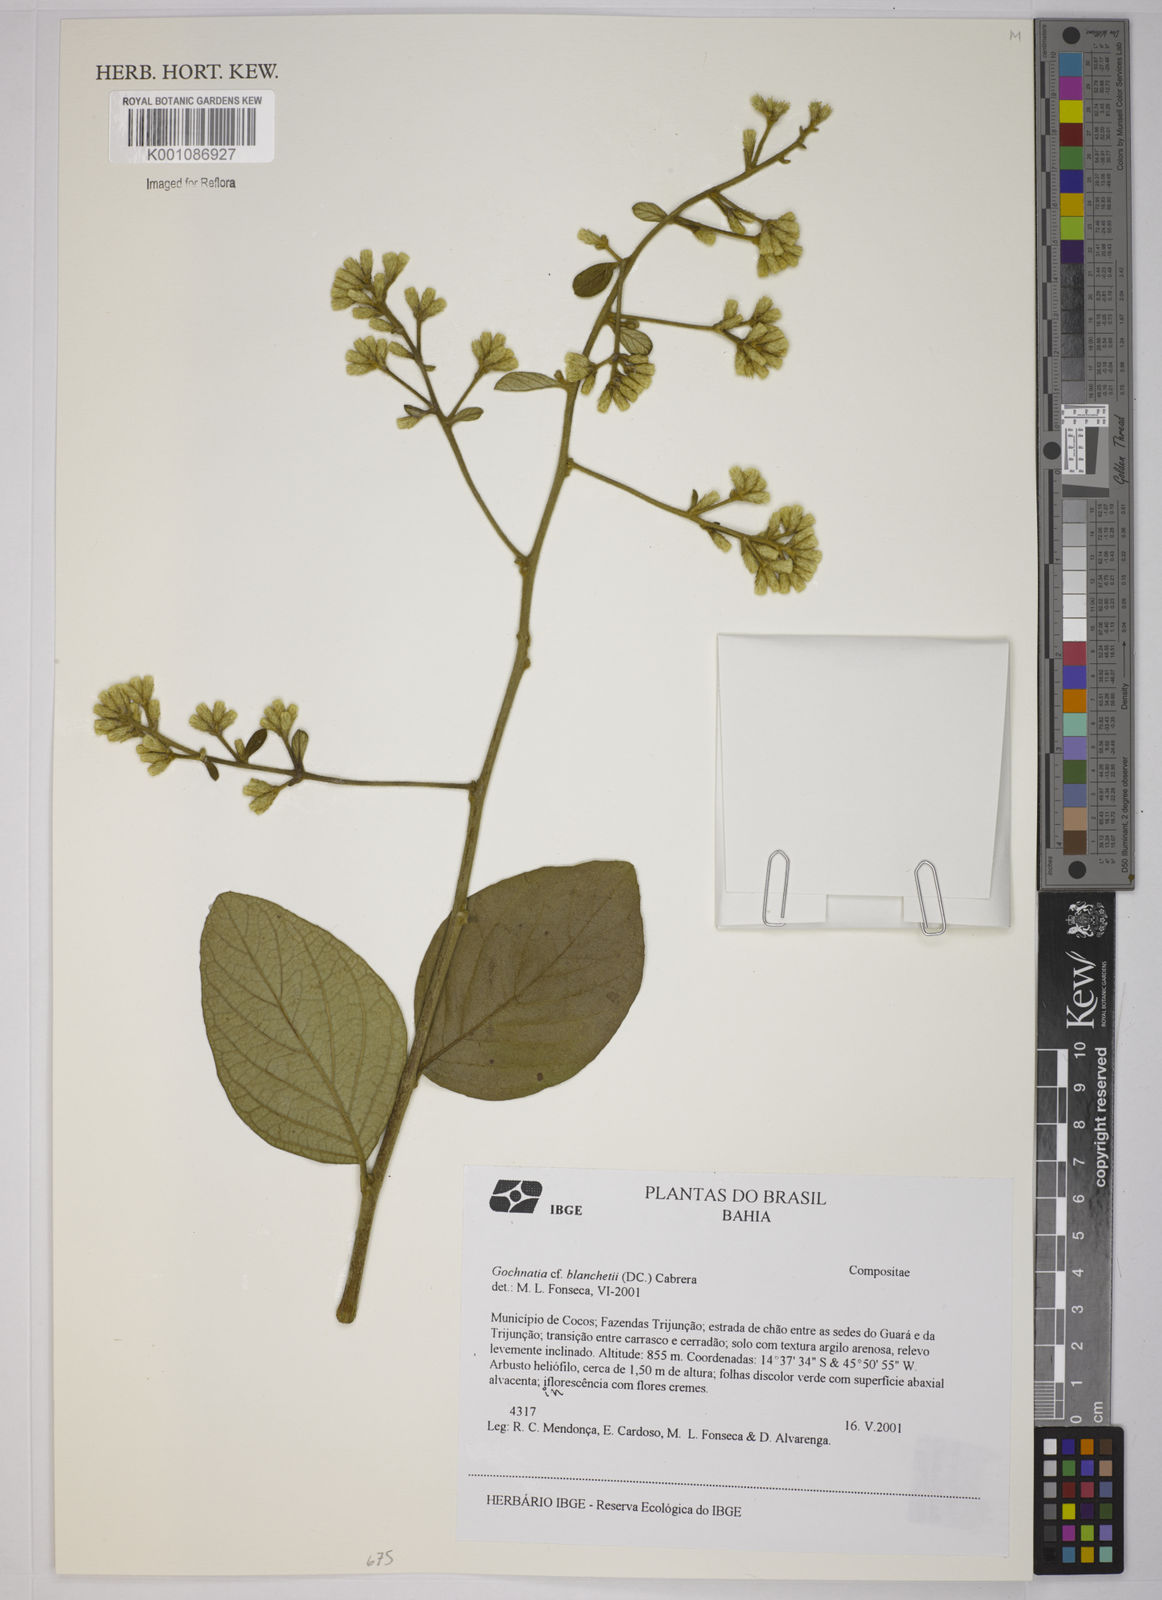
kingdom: Plantae
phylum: Tracheophyta
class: Magnoliopsida
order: Asterales
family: Asteraceae
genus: Moquiniastrum
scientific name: Moquiniastrum blanchetianum
